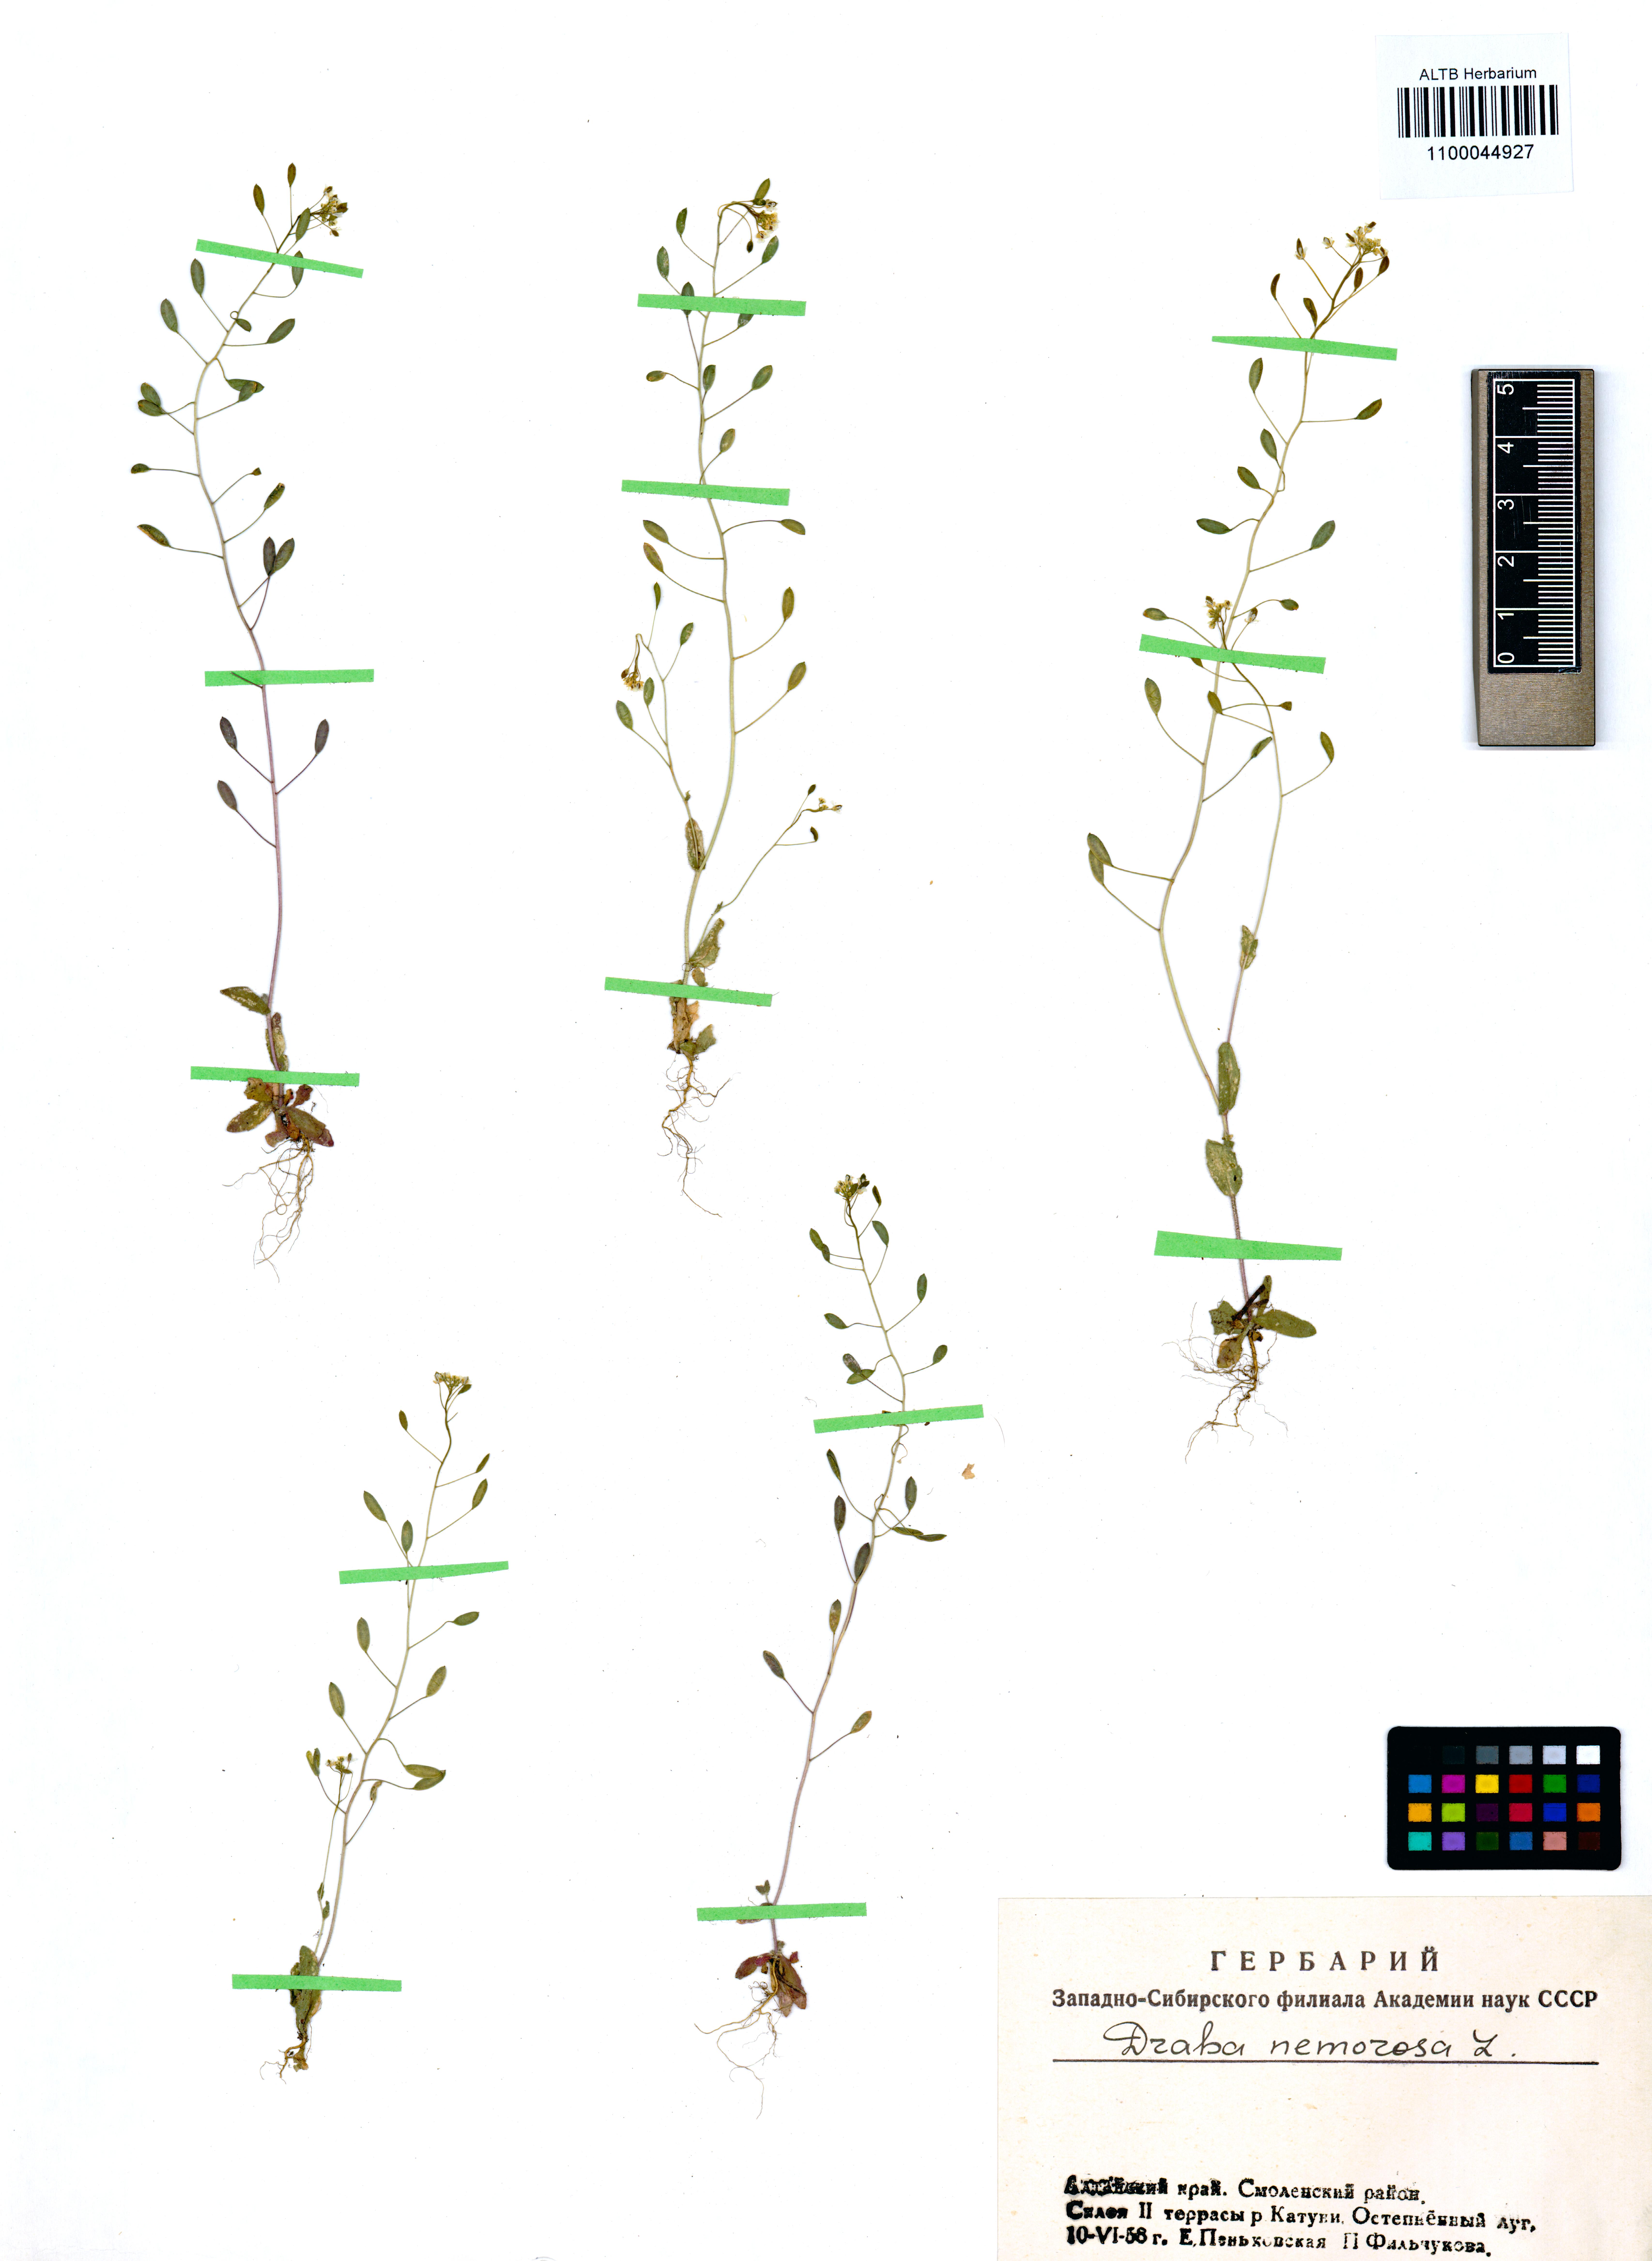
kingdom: Plantae
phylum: Tracheophyta
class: Magnoliopsida
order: Brassicales
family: Brassicaceae
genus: Draba
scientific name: Draba nemorosa
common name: Wood whitlow-grass
